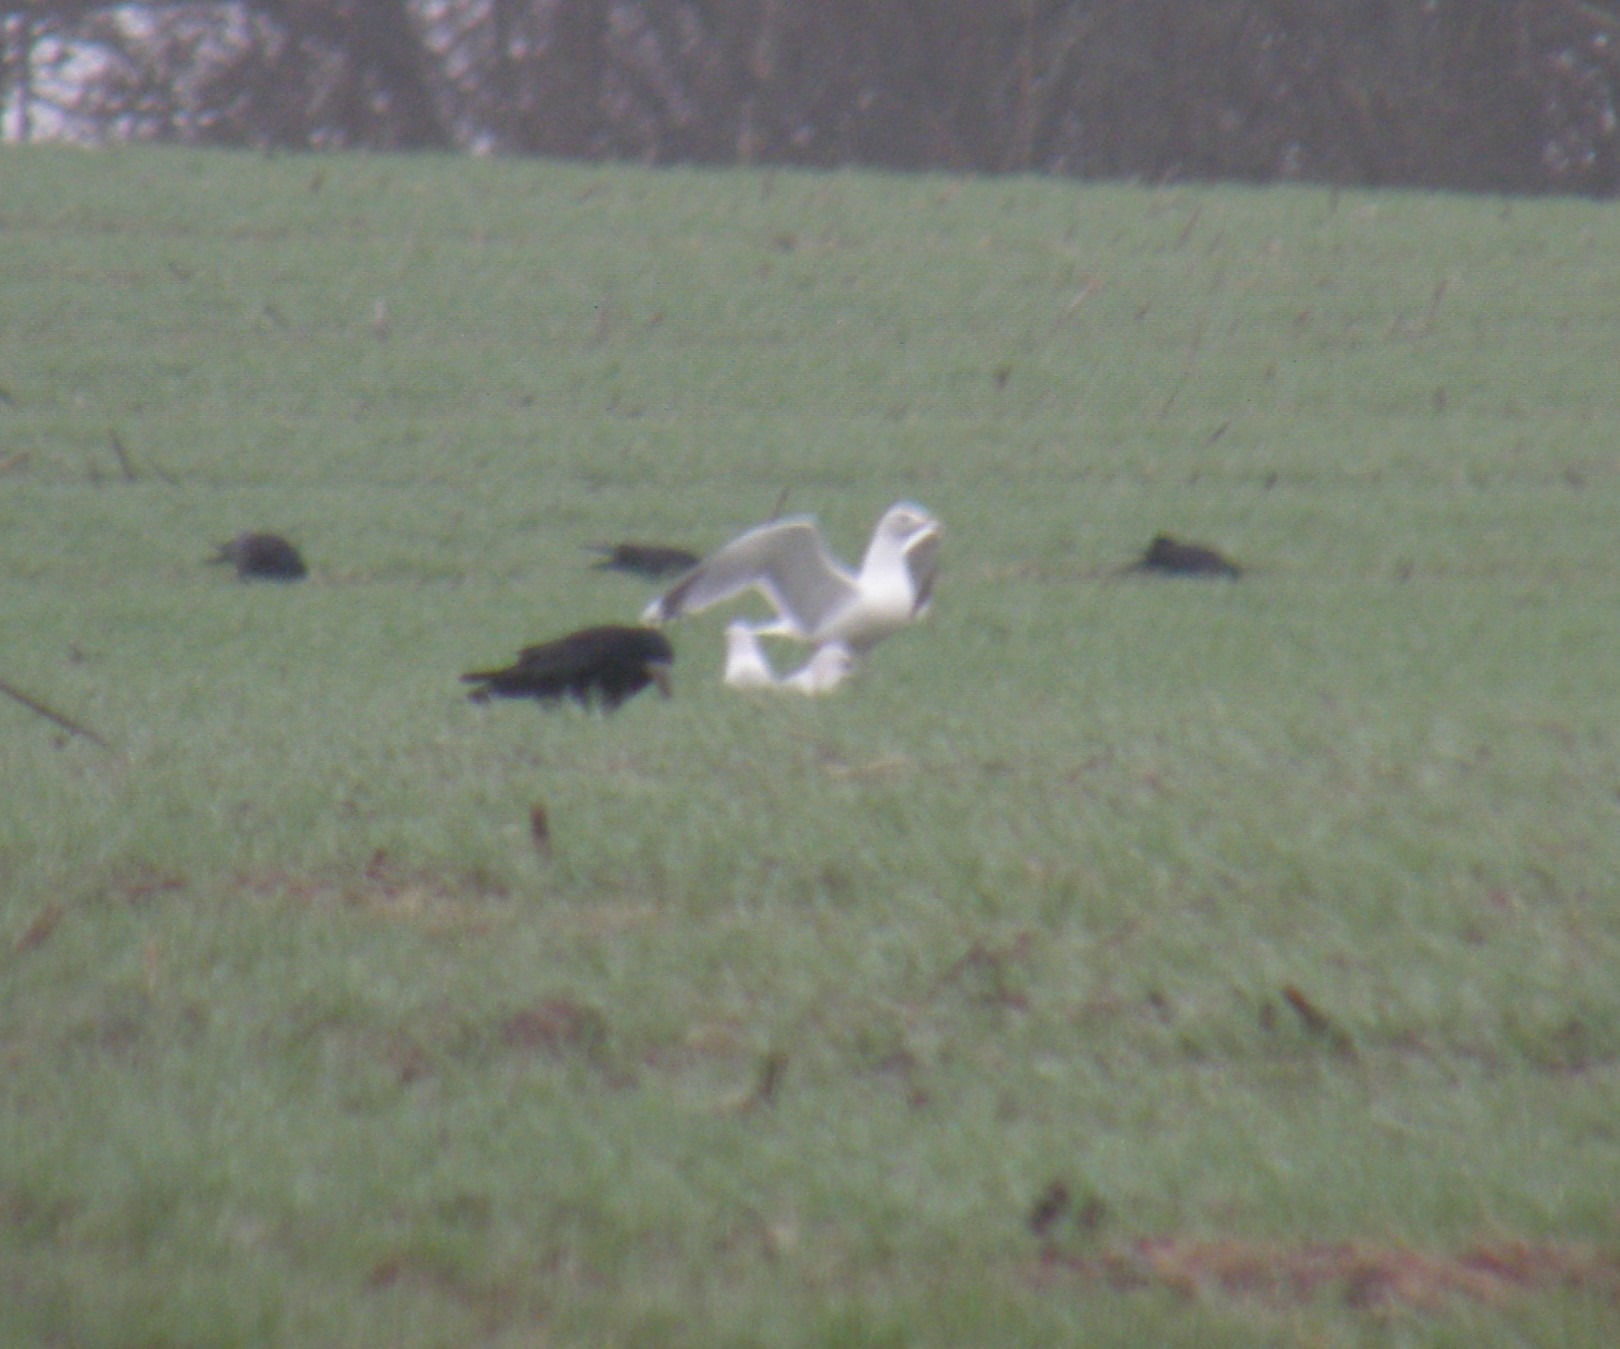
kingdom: Animalia
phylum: Chordata
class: Aves
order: Charadriiformes
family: Laridae
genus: Larus
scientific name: Larus canus
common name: Stormmåge
